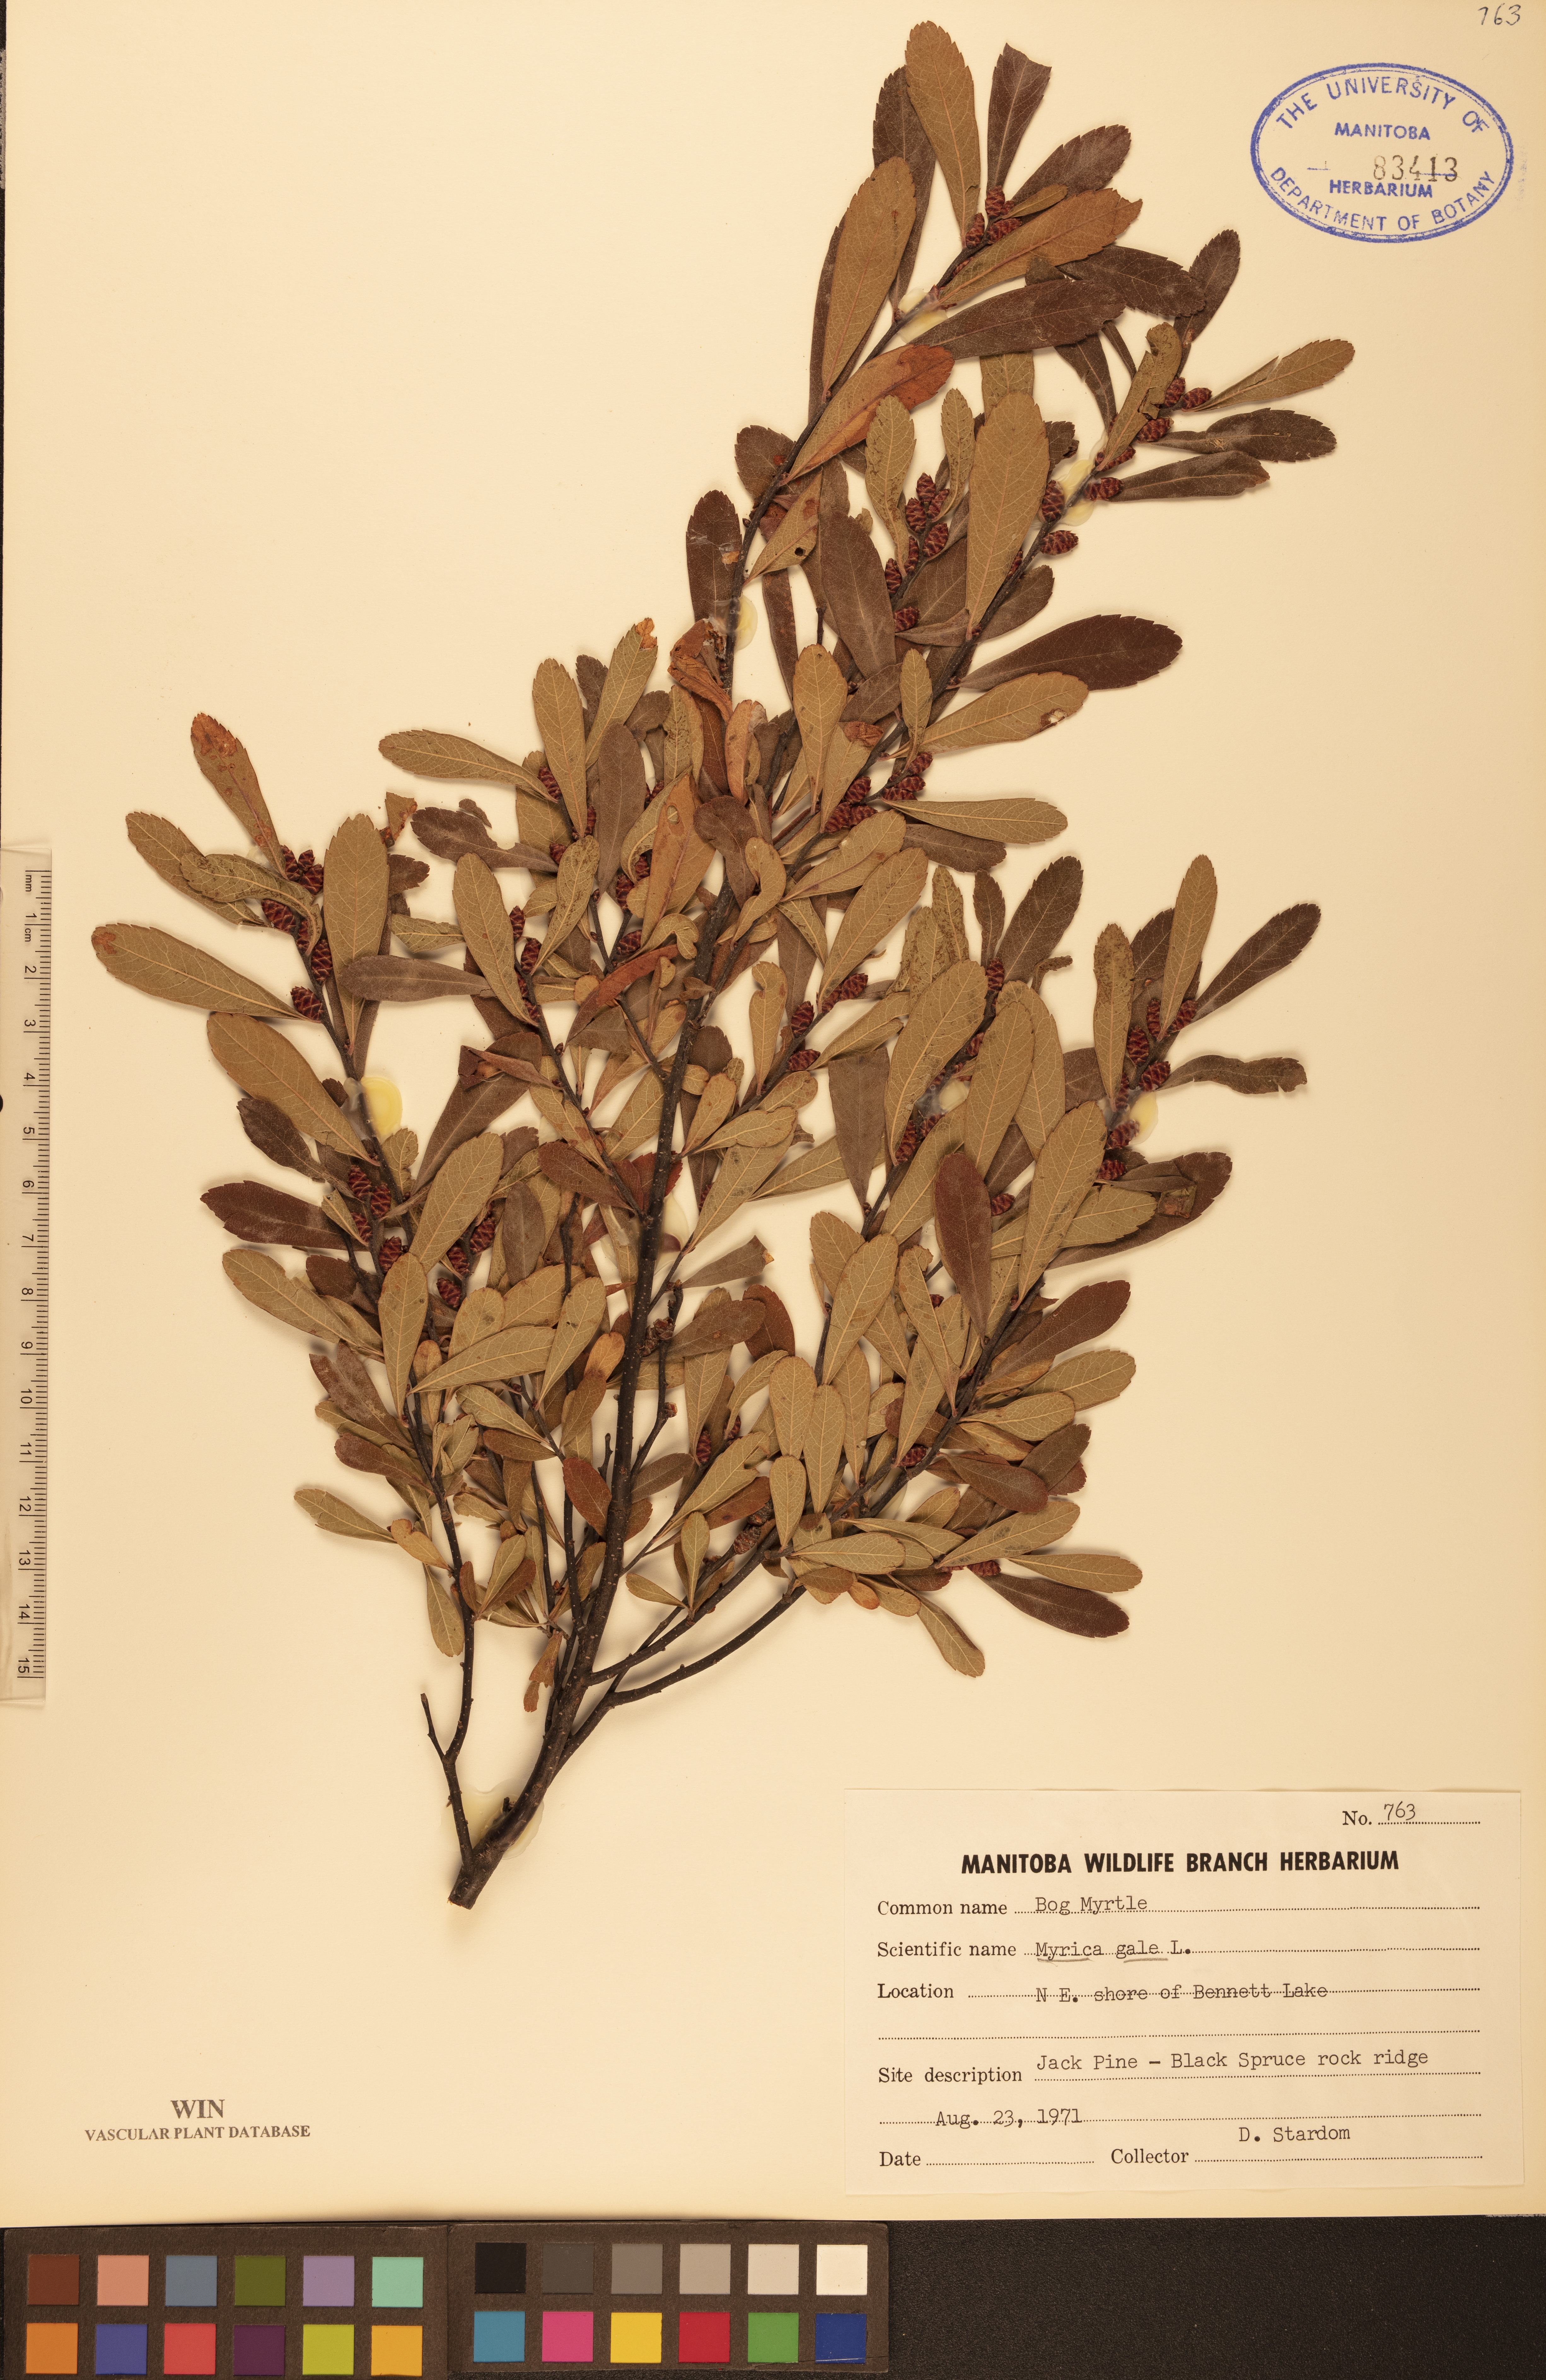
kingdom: Plantae
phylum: Tracheophyta
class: Magnoliopsida
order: Fagales
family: Myricaceae
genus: Myrica
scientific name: Myrica gale
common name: Sweet gale
